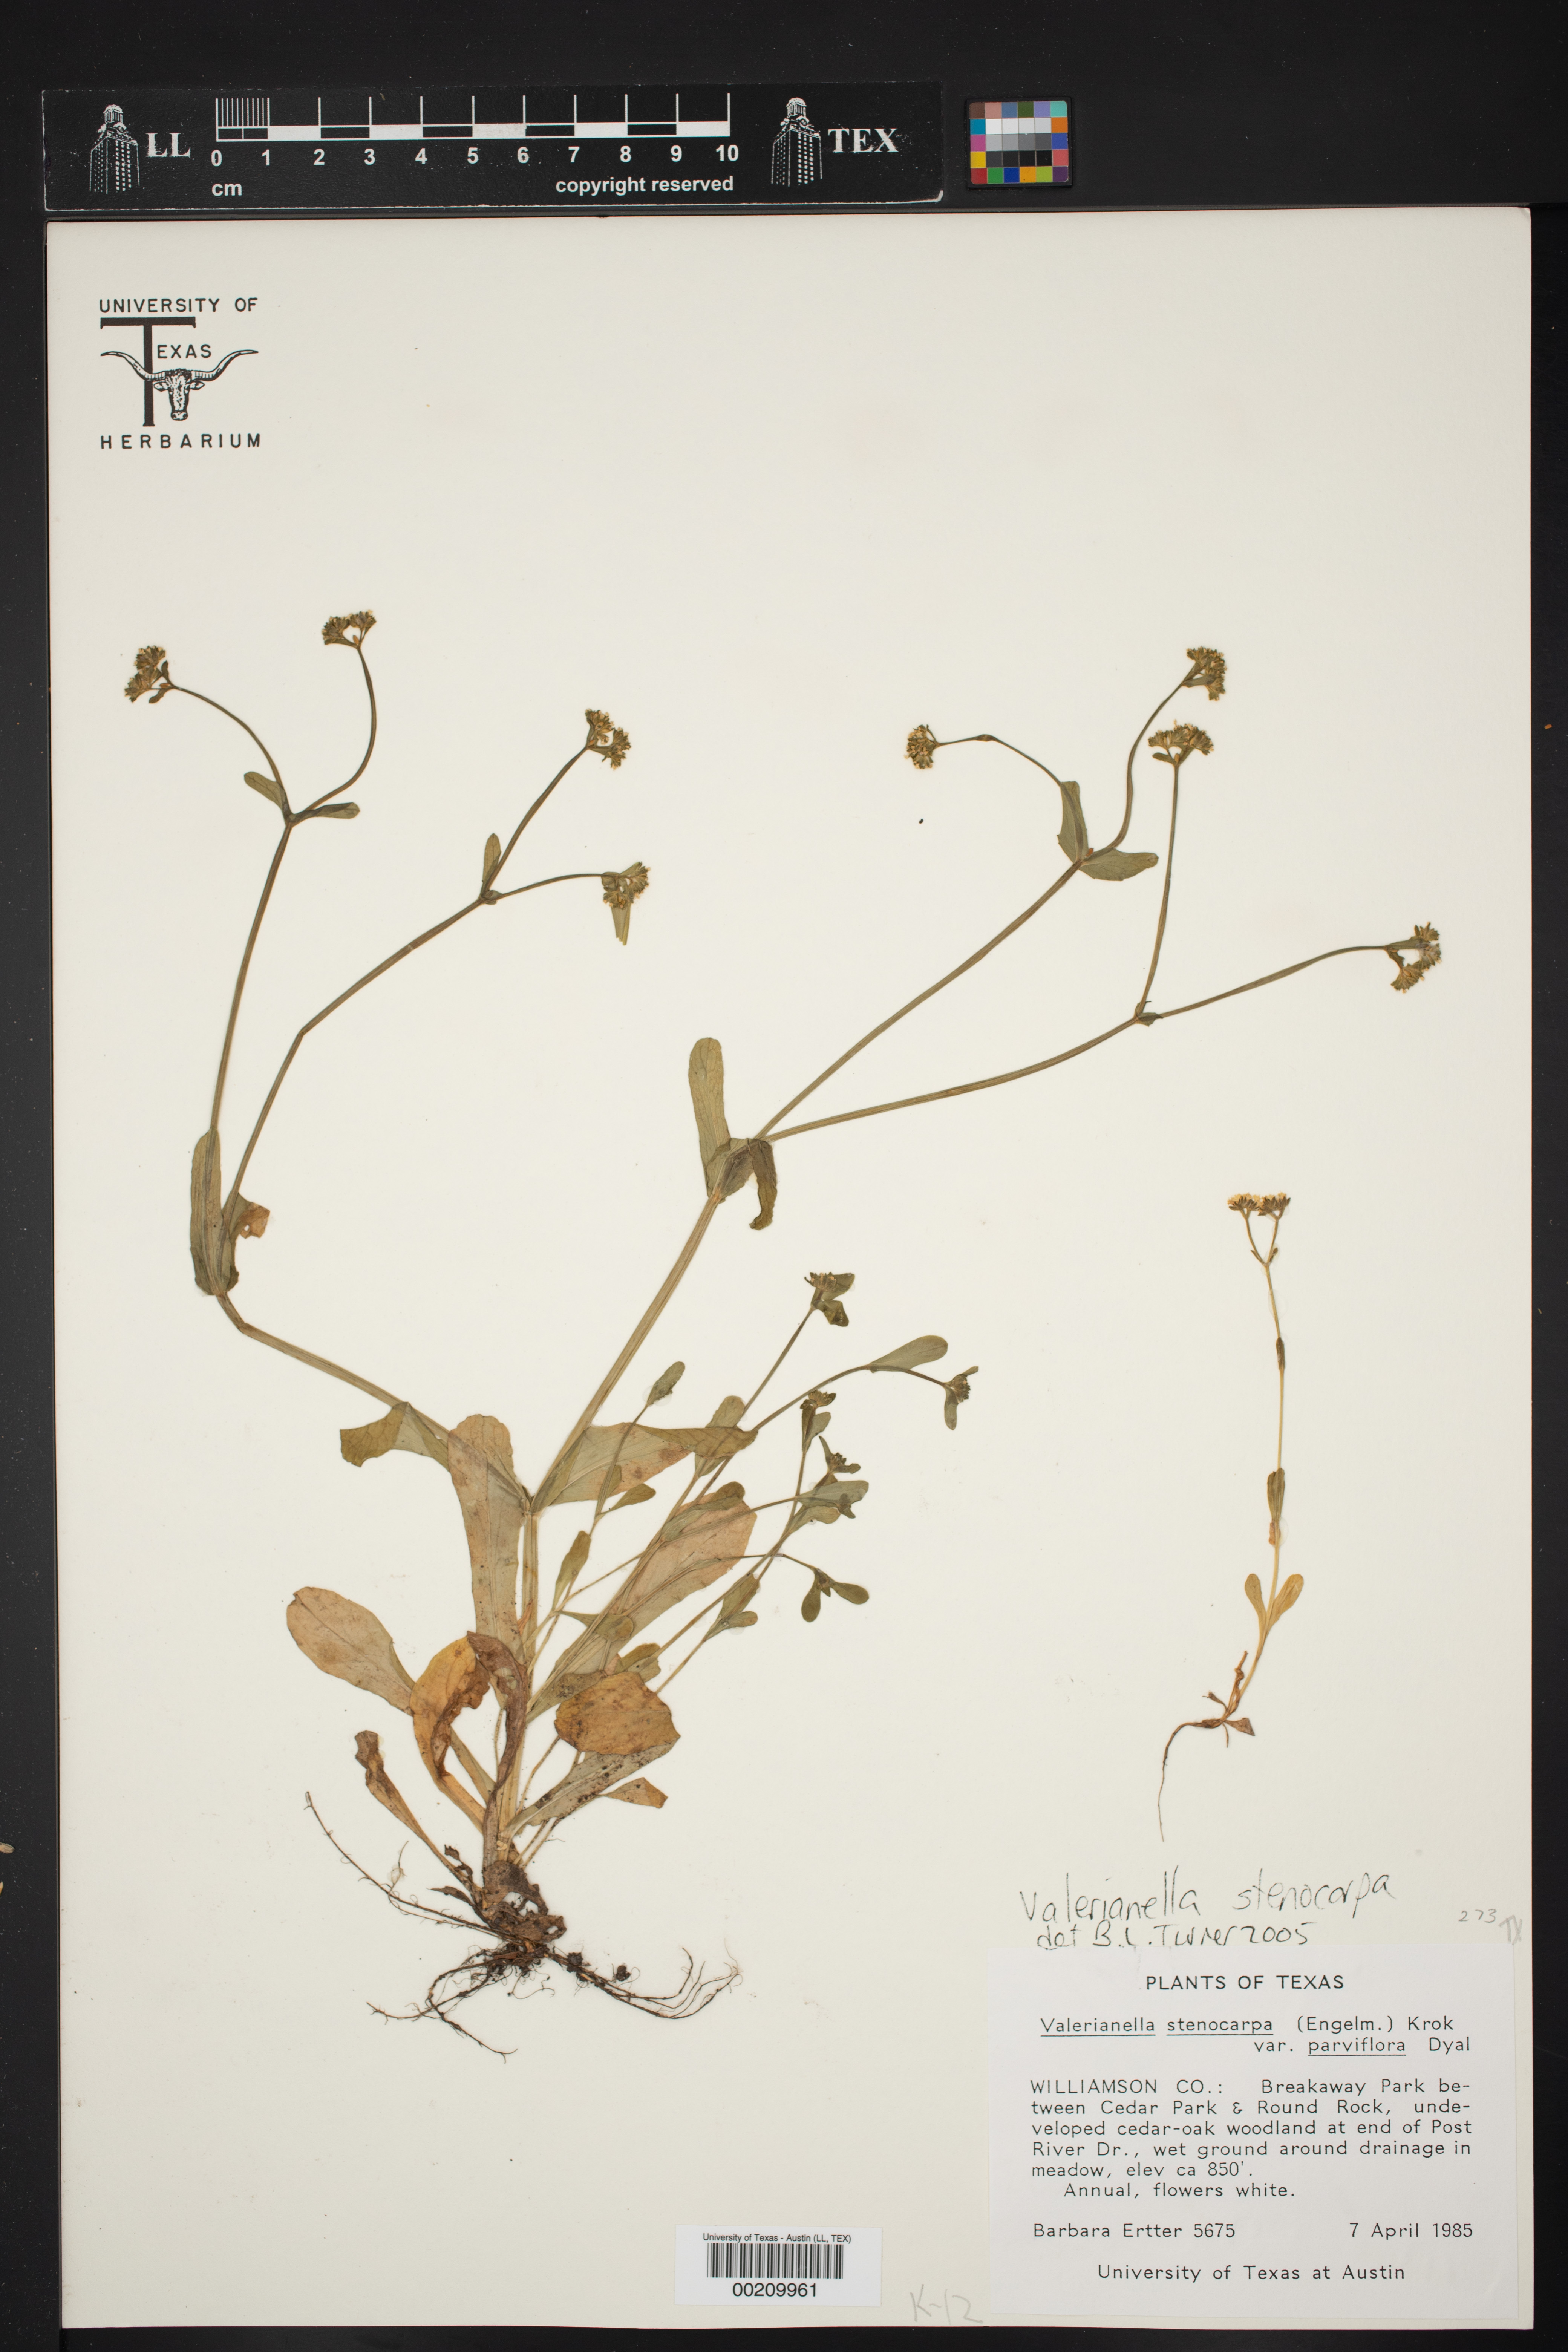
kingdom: Plantae
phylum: Tracheophyta
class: Magnoliopsida
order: Dipsacales
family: Caprifoliaceae
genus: Valerianella
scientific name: Valerianella stenocarpa
